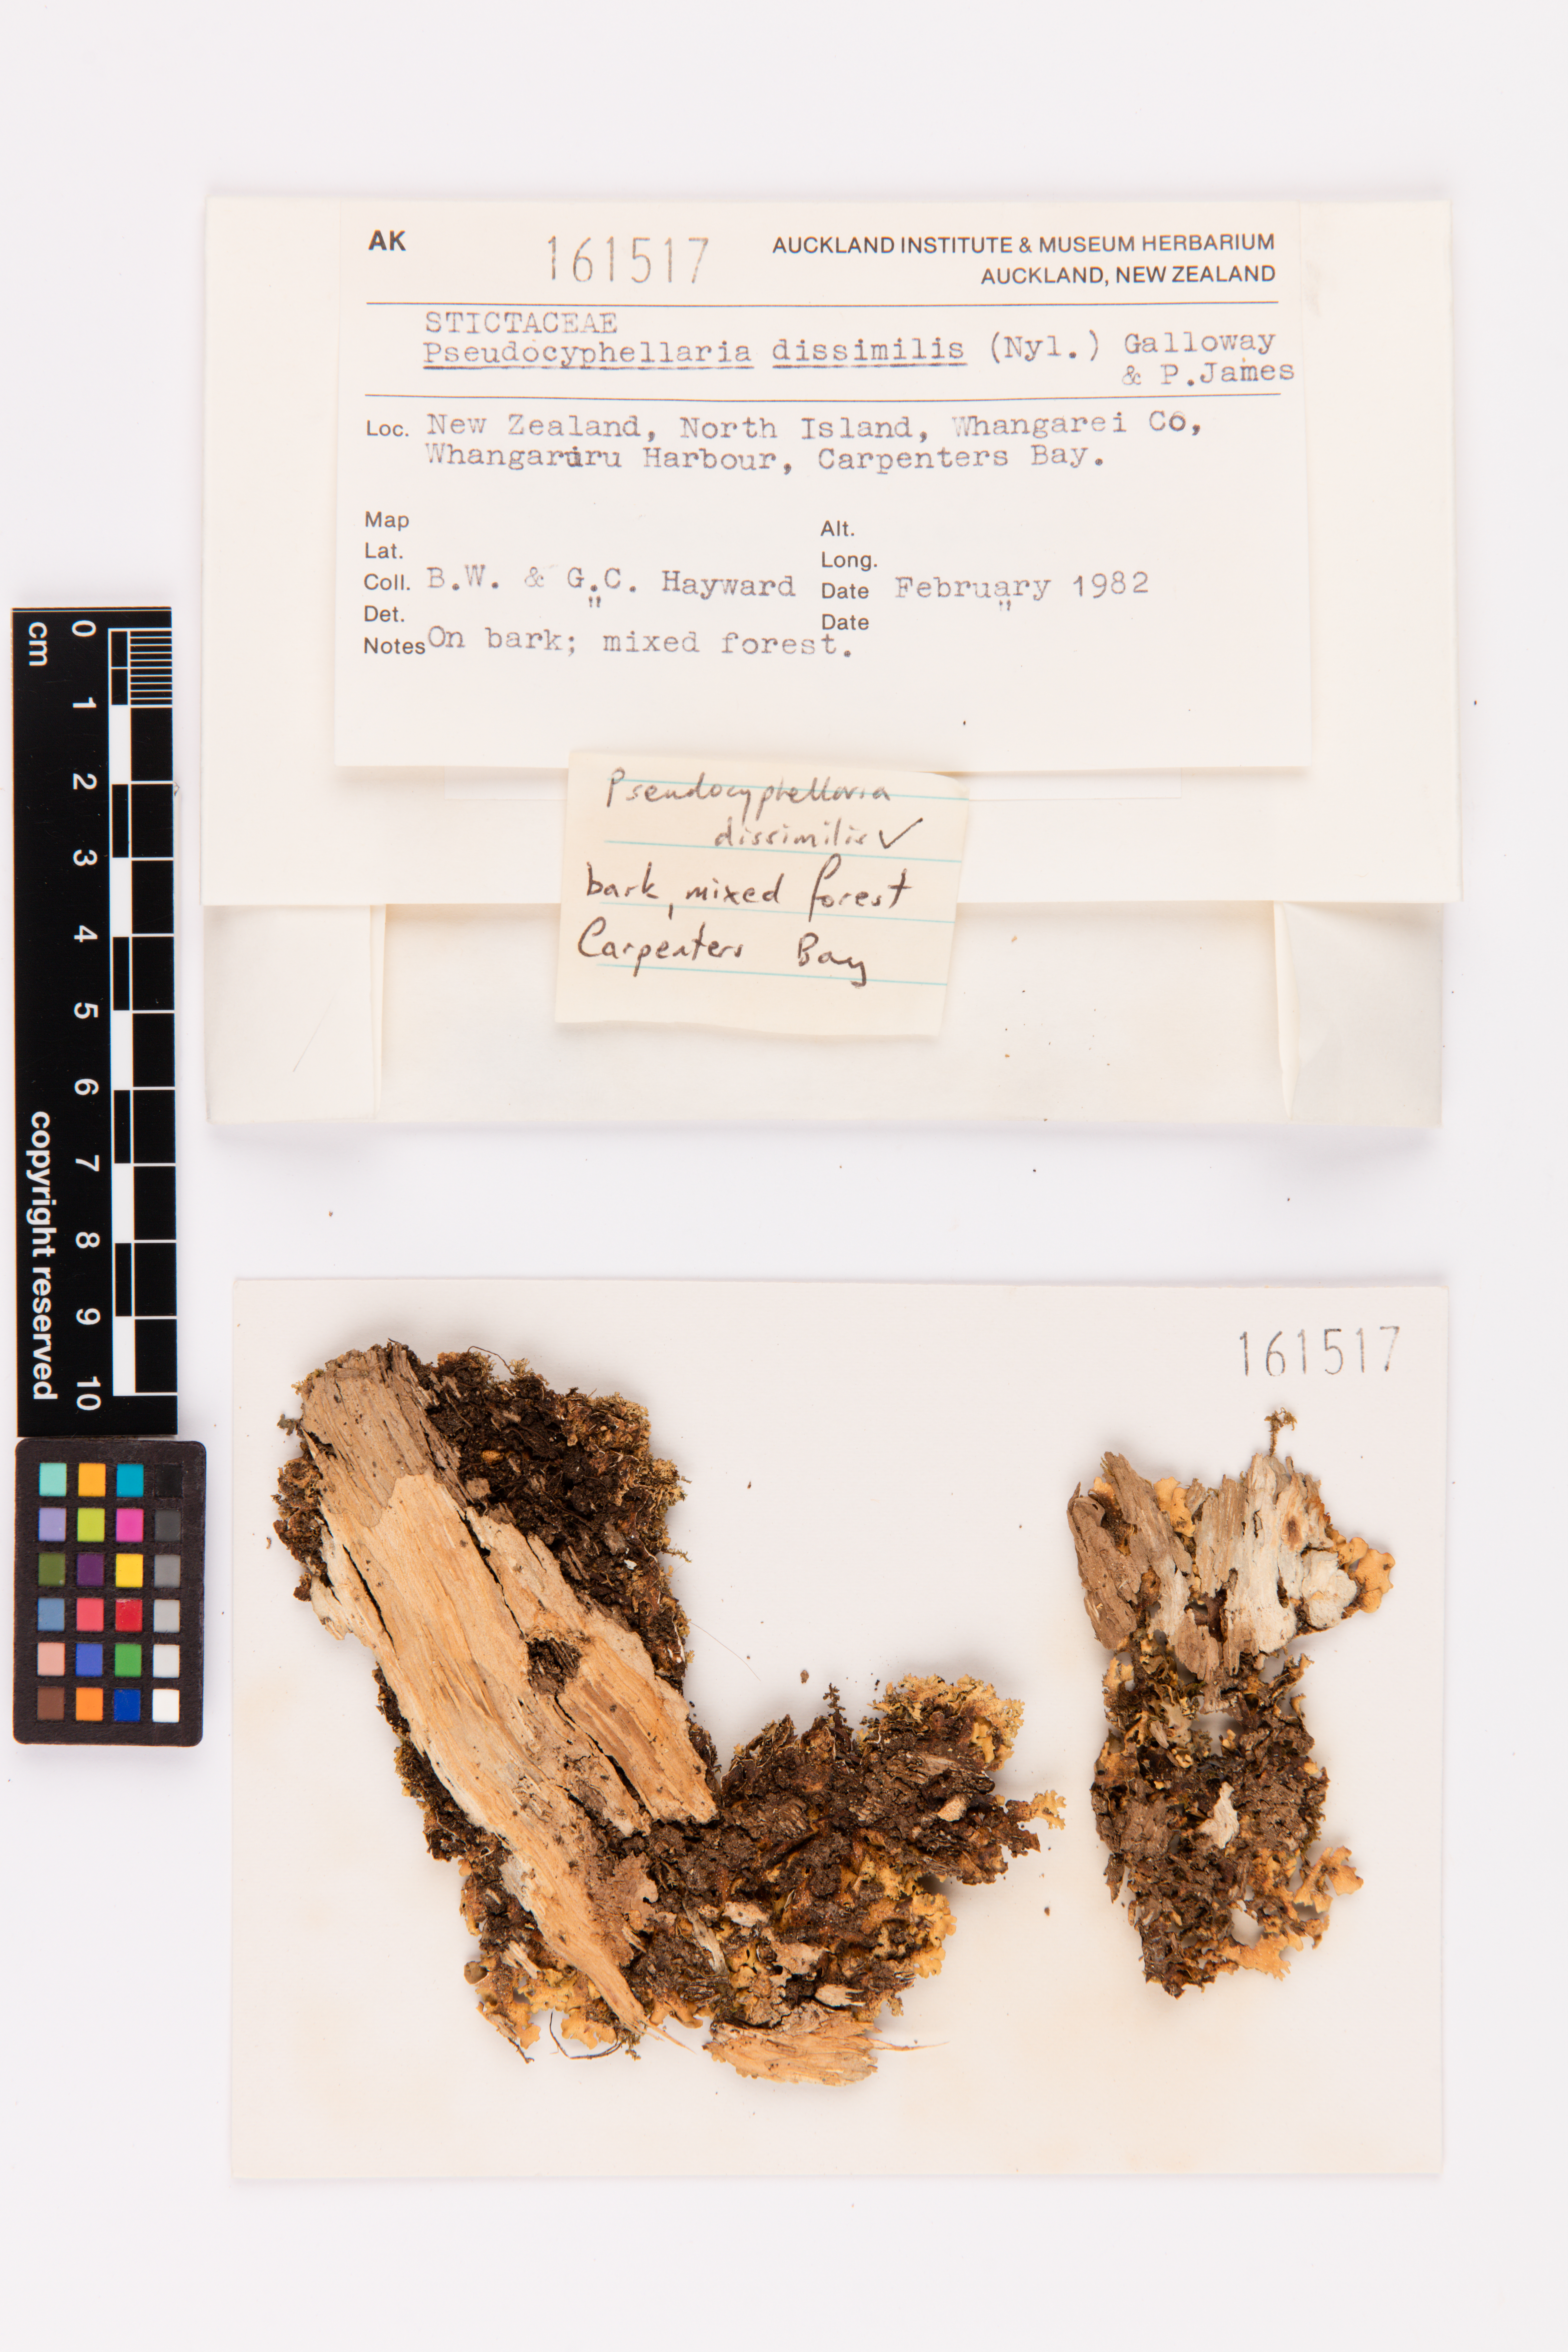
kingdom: Fungi
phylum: Ascomycota
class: Lecanoromycetes
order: Peltigerales
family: Lobariaceae
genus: Pseudocyphellaria
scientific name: Pseudocyphellaria dissimilis
